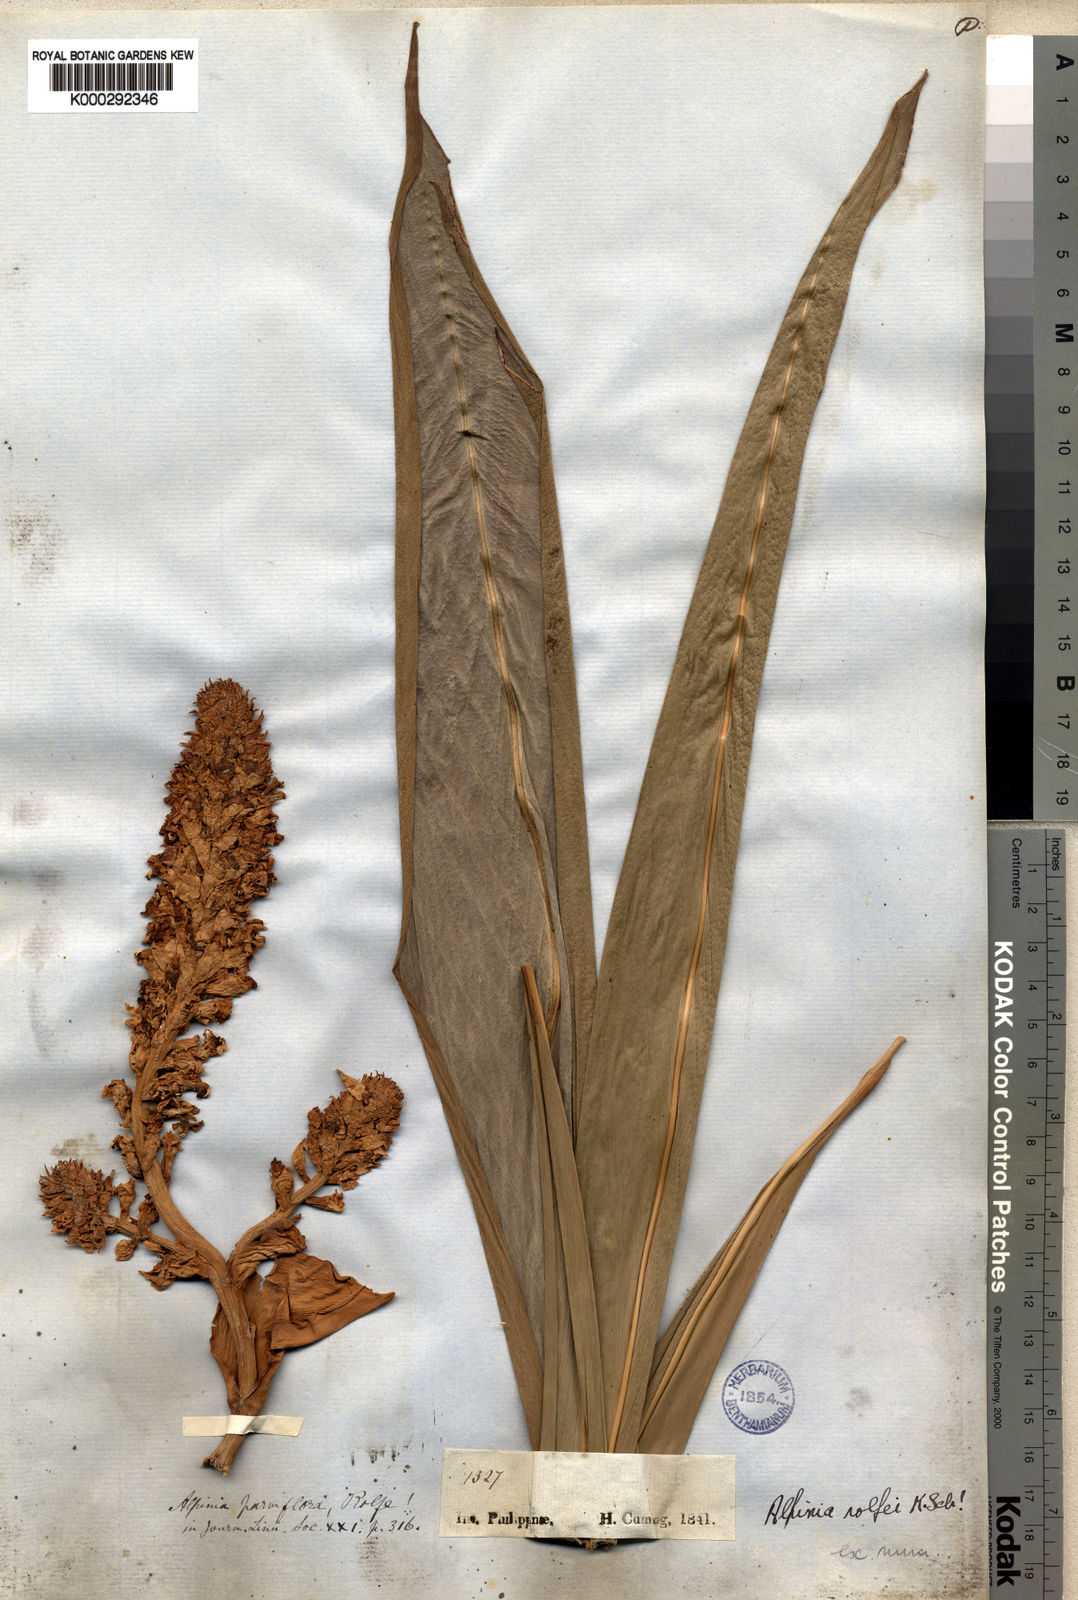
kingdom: Plantae
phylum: Tracheophyta
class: Liliopsida
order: Zingiberales
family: Zingiberaceae
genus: Plagiostachys
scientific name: Plagiostachys rolfei
